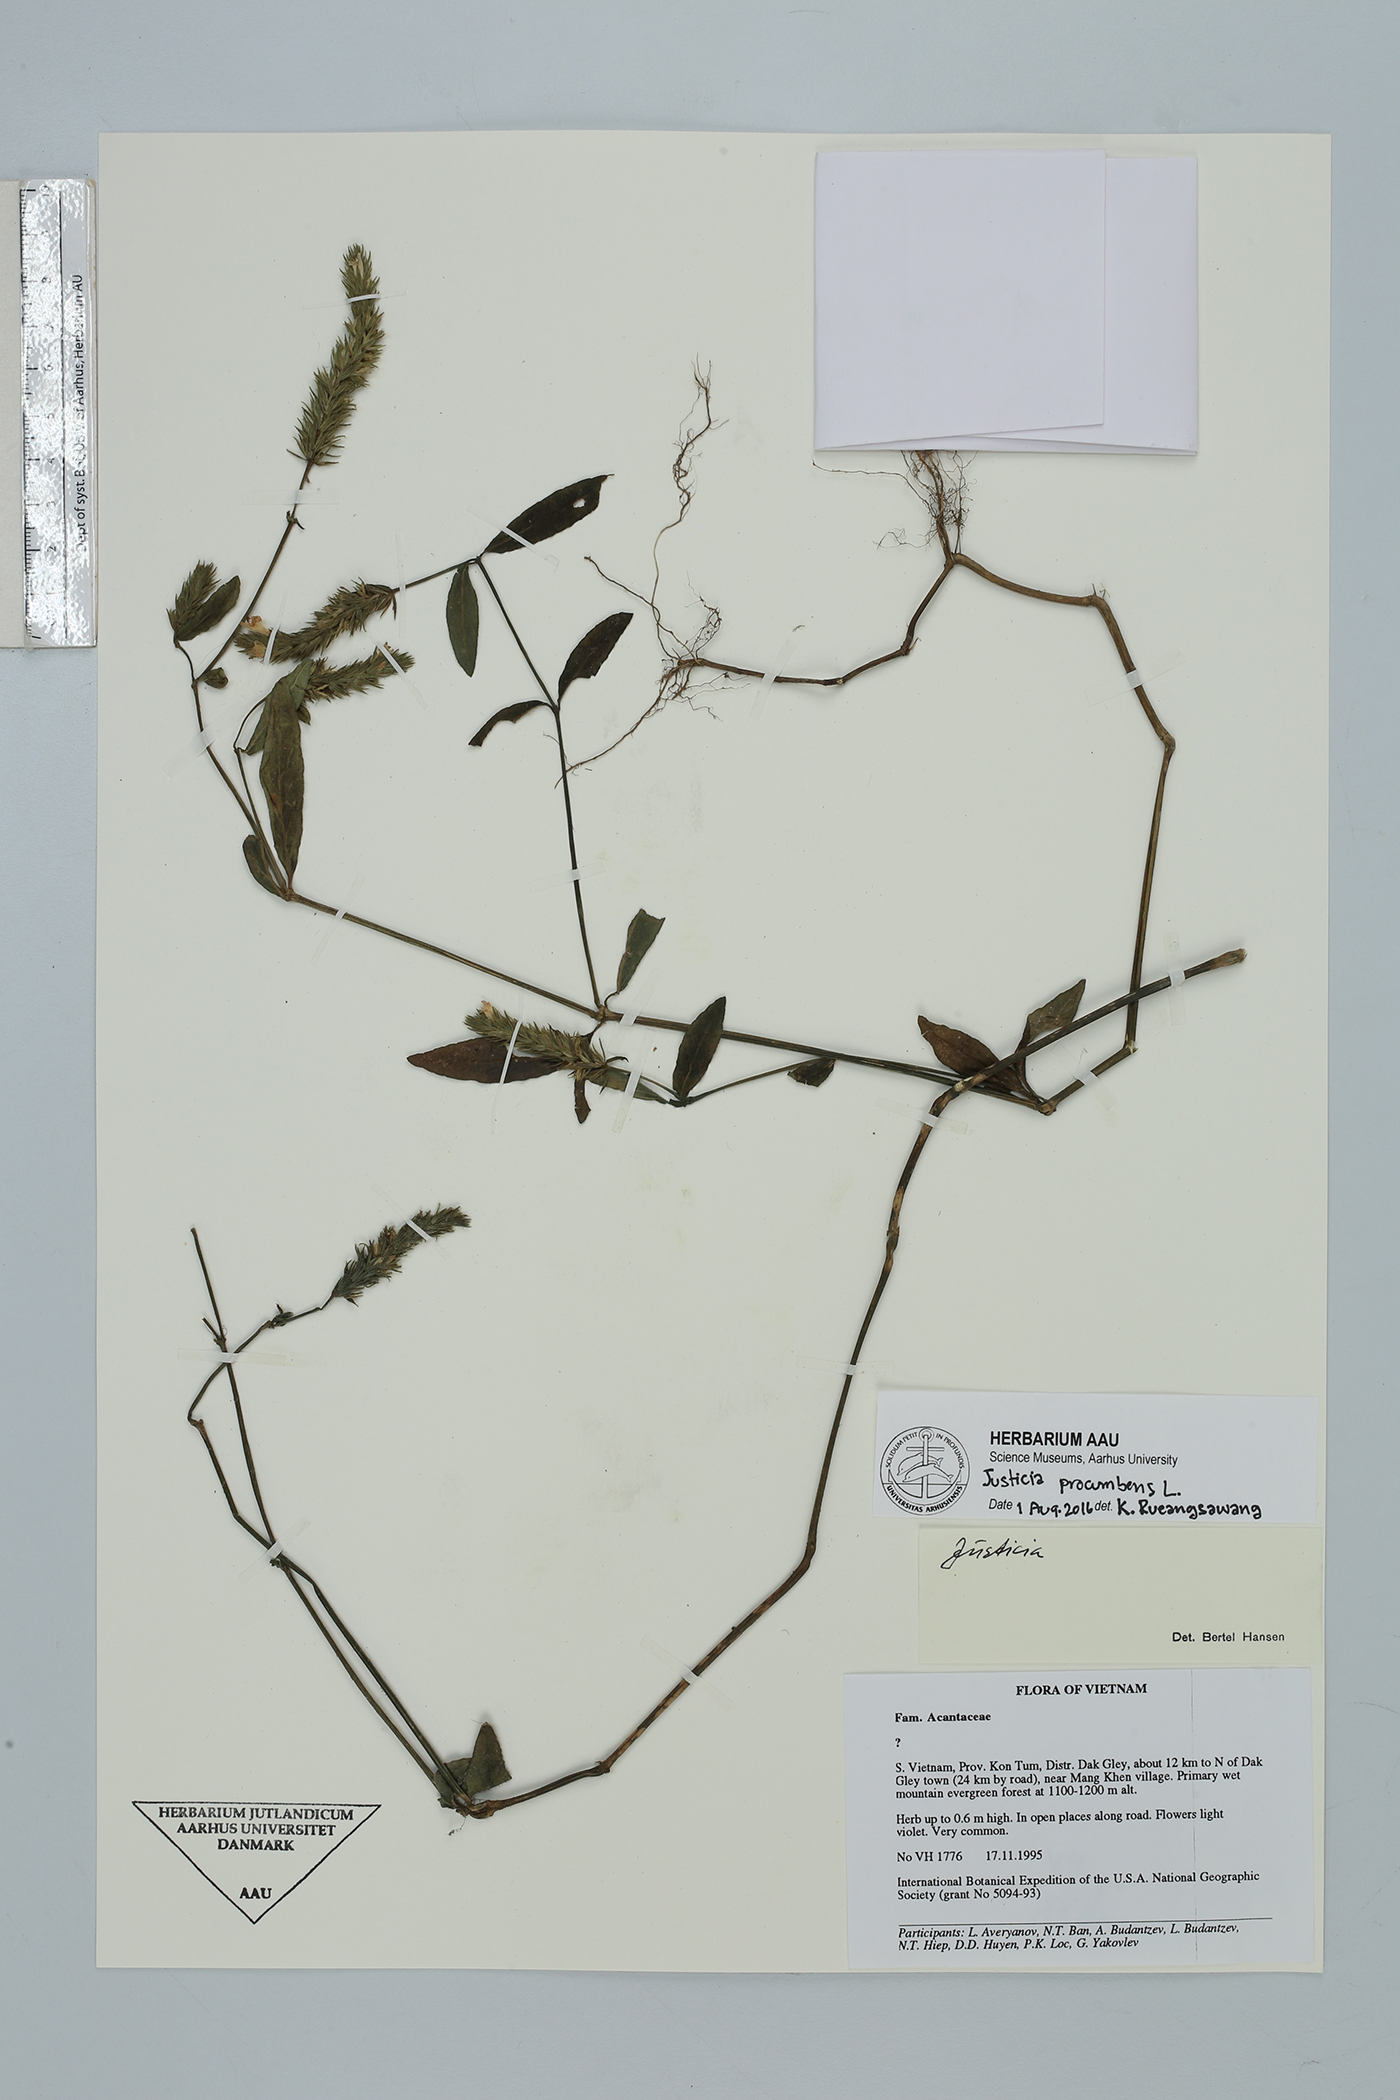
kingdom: Plantae
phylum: Tracheophyta
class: Magnoliopsida
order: Lamiales
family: Acanthaceae
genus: Rostellularia
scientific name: Rostellularia procumbens
